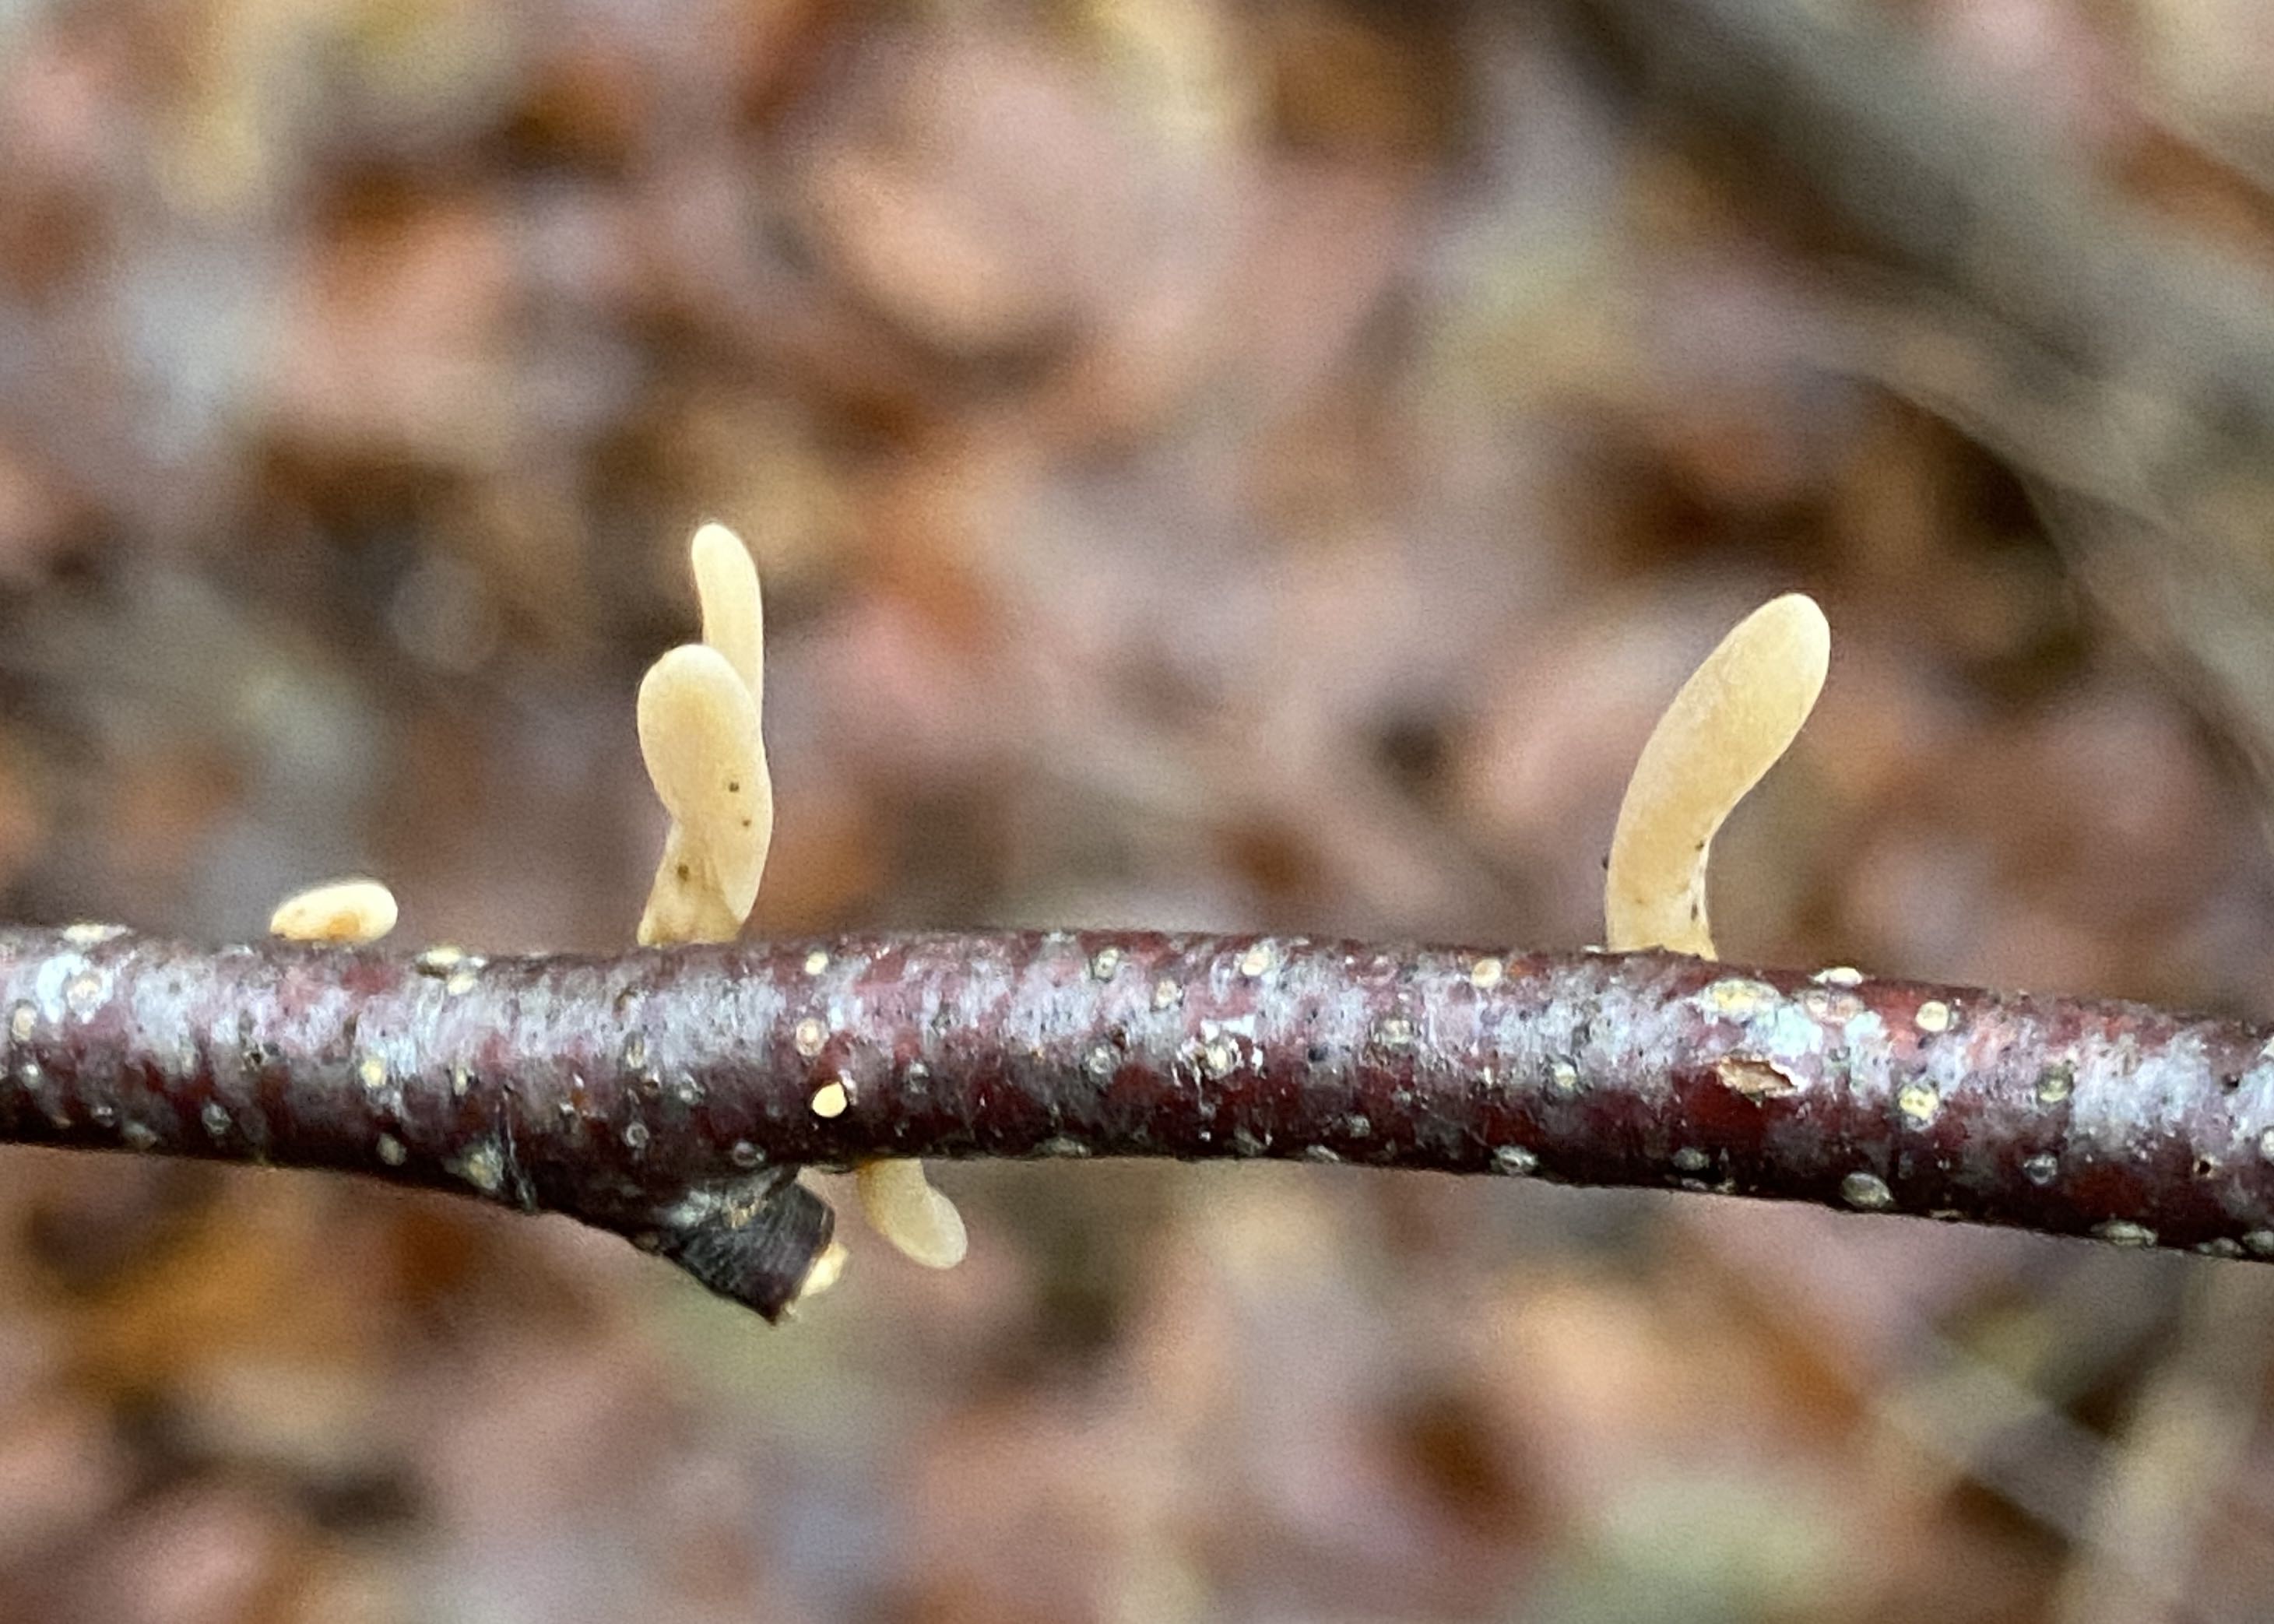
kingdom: Fungi
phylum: Basidiomycota
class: Agaricomycetes
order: Agaricales
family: Typhulaceae
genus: Typhula
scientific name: Typhula contorta
